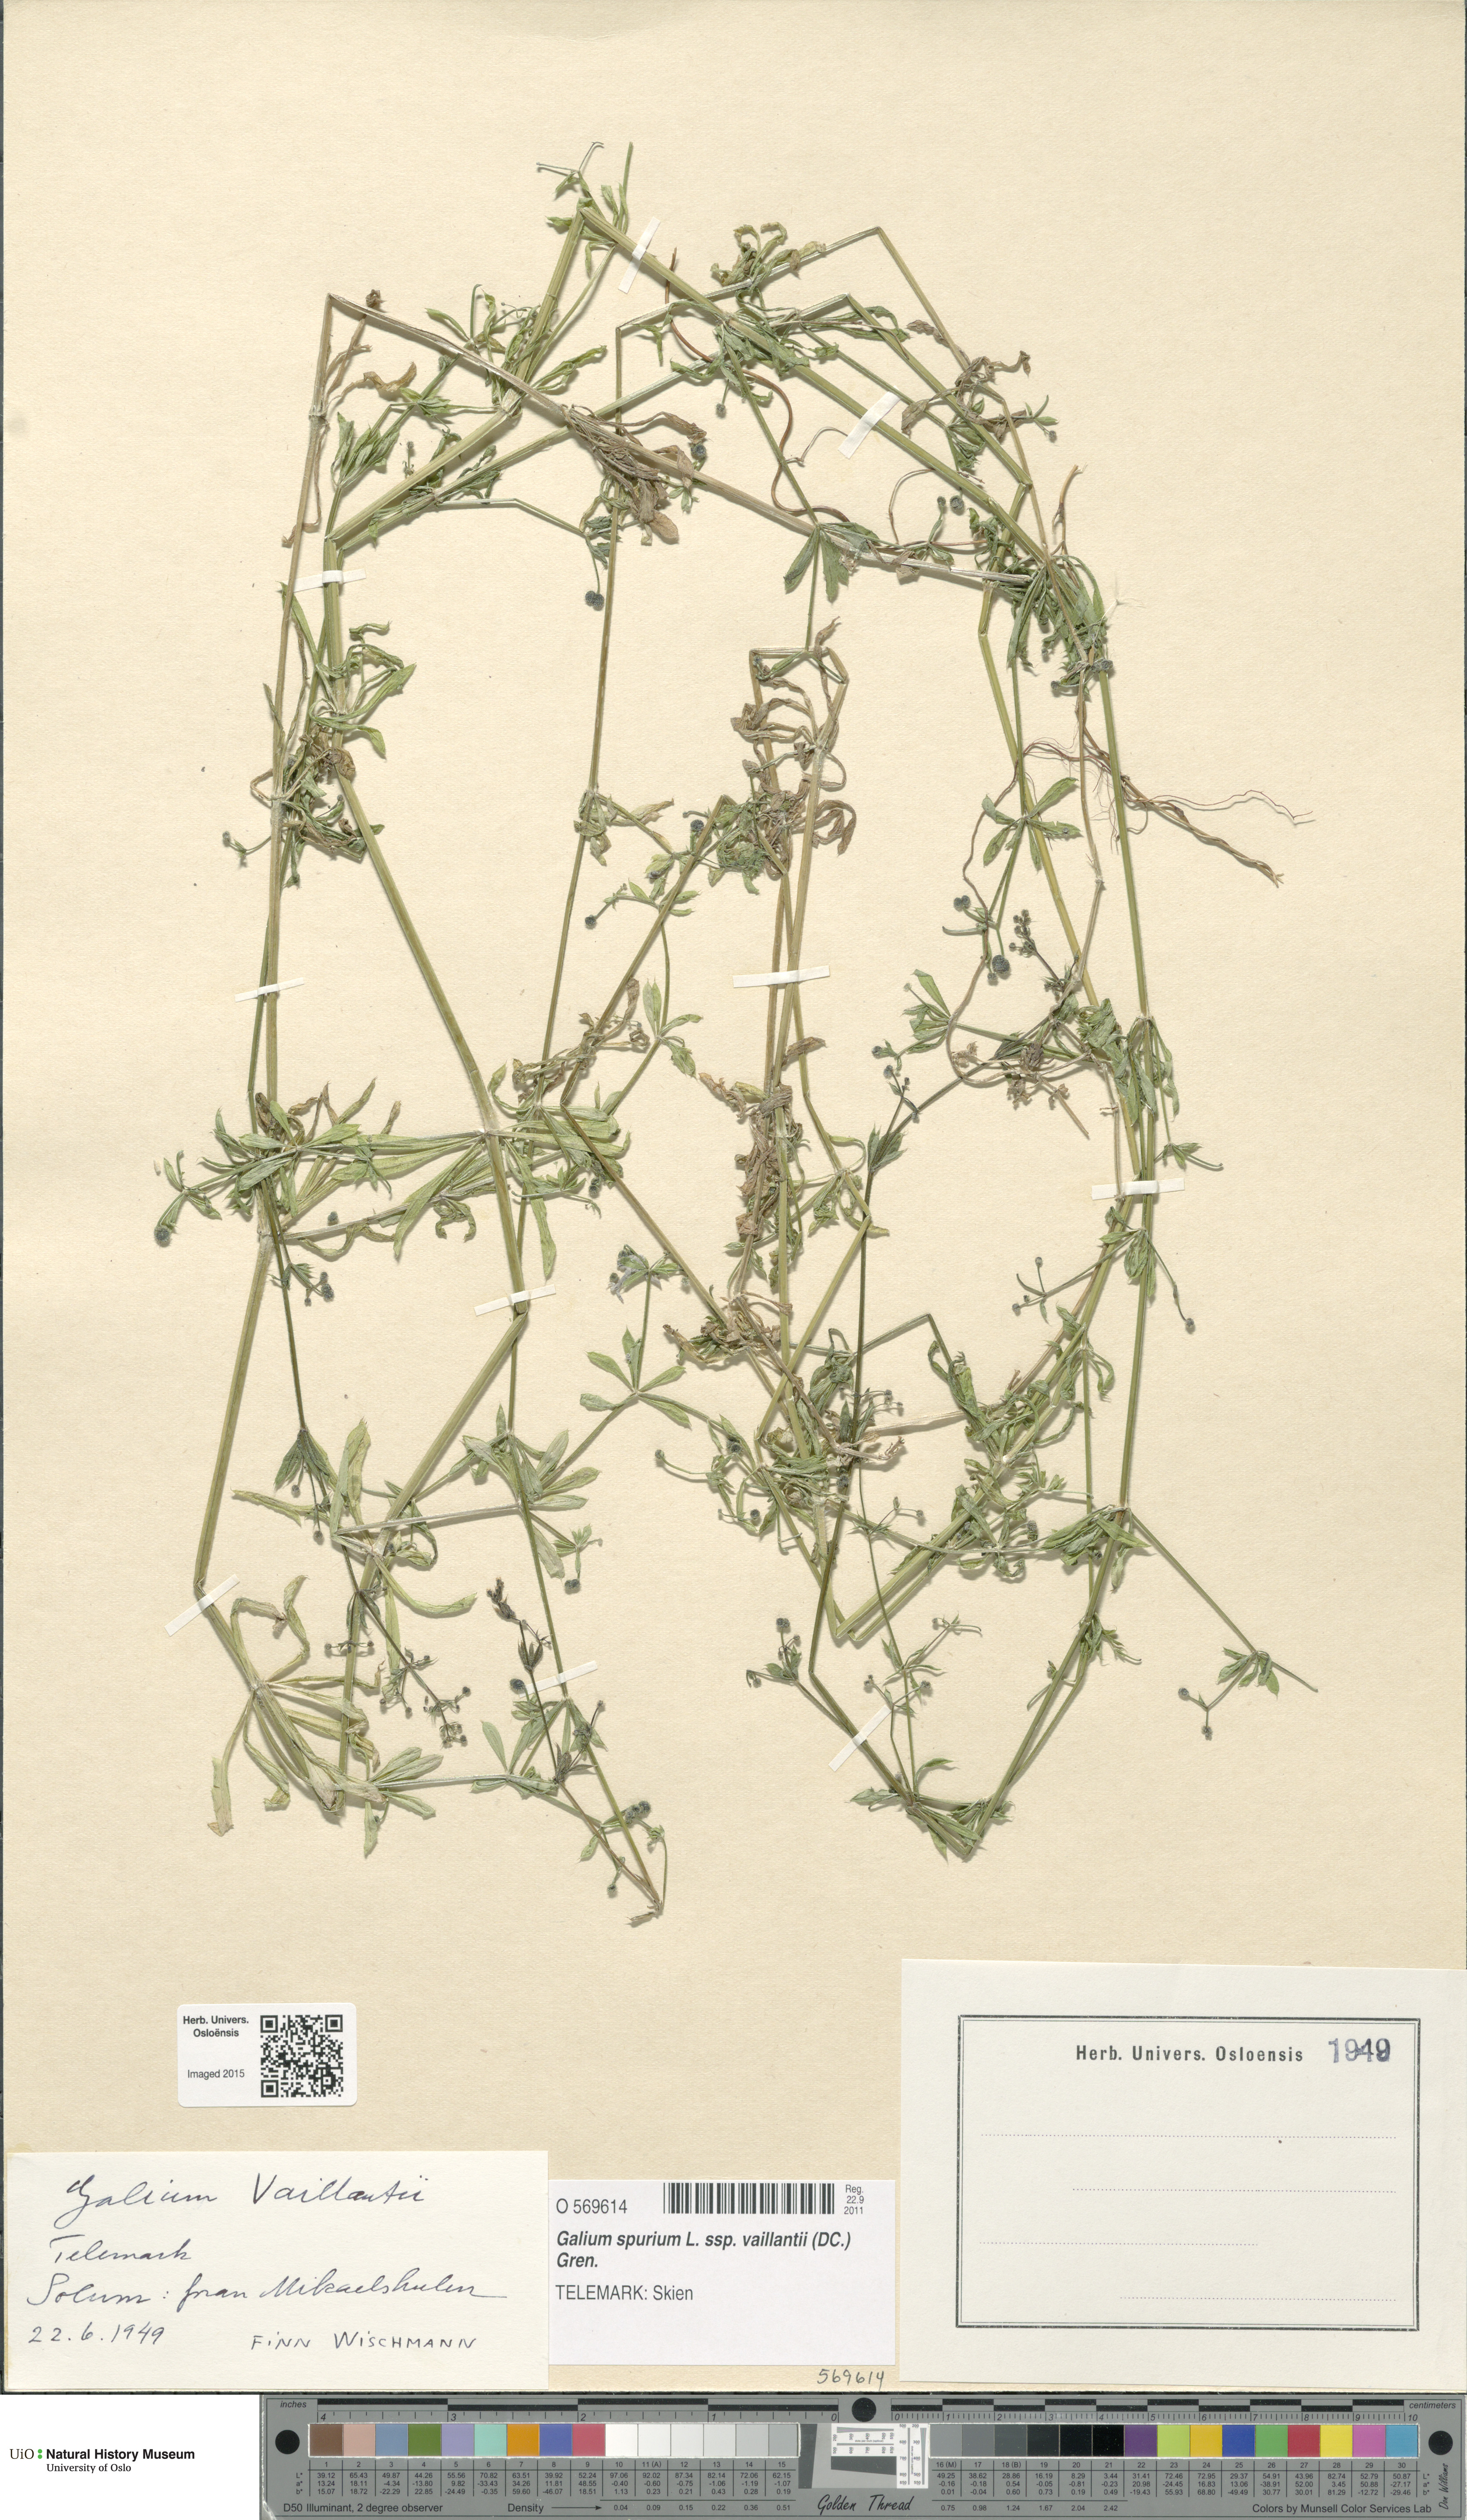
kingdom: Plantae
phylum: Tracheophyta
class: Magnoliopsida
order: Gentianales
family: Rubiaceae
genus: Galium
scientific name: Galium spurium
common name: False cleavers
